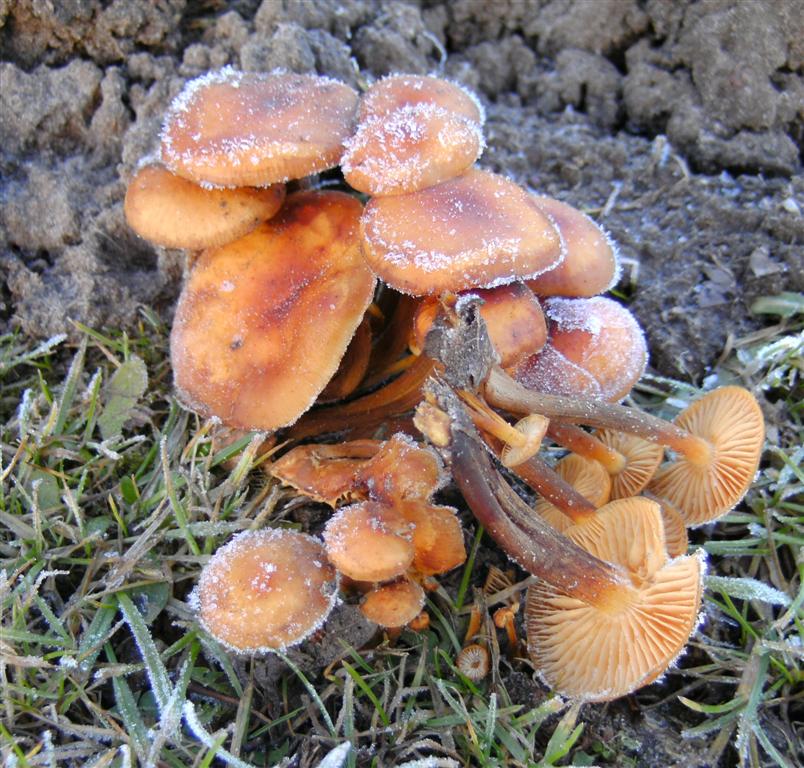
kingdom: Fungi
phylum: Basidiomycota
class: Agaricomycetes
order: Agaricales
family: Physalacriaceae
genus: Flammulina
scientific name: Flammulina velutipes
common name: gul fløjlsfod
